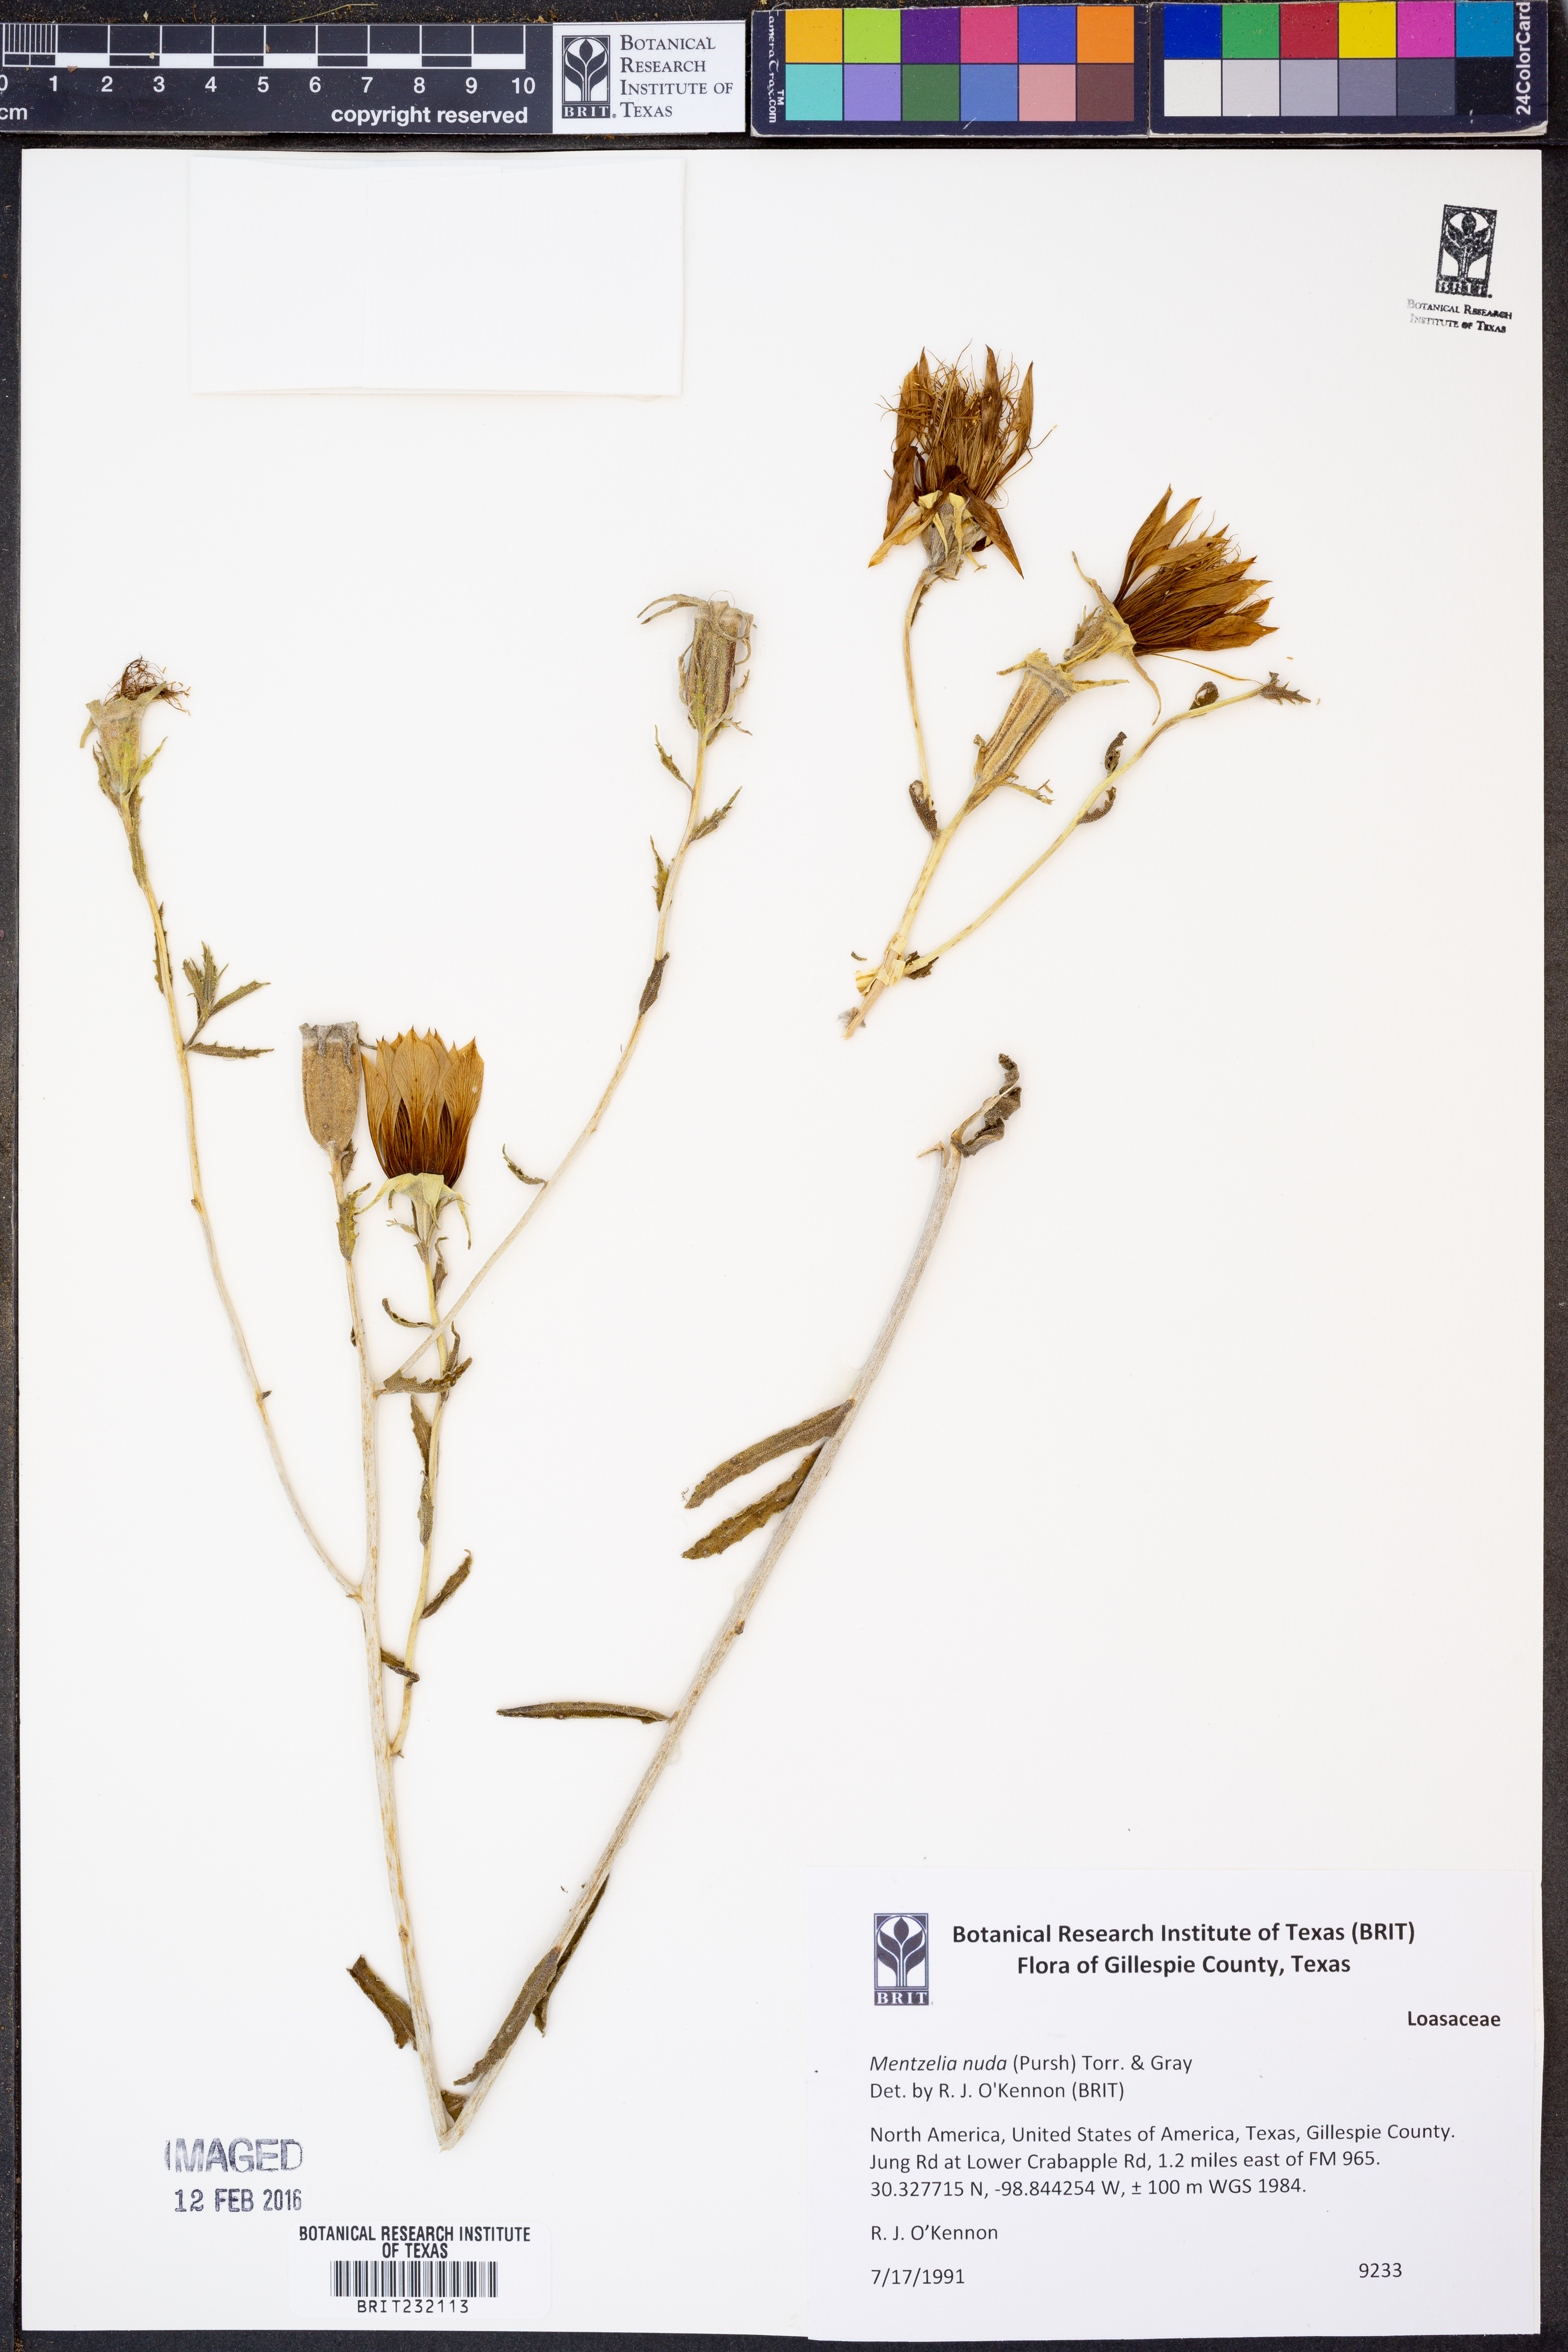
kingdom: Plantae
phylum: Tracheophyta
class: Magnoliopsida
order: Cornales
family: Loasaceae
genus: Mentzelia
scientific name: Mentzelia nuda
